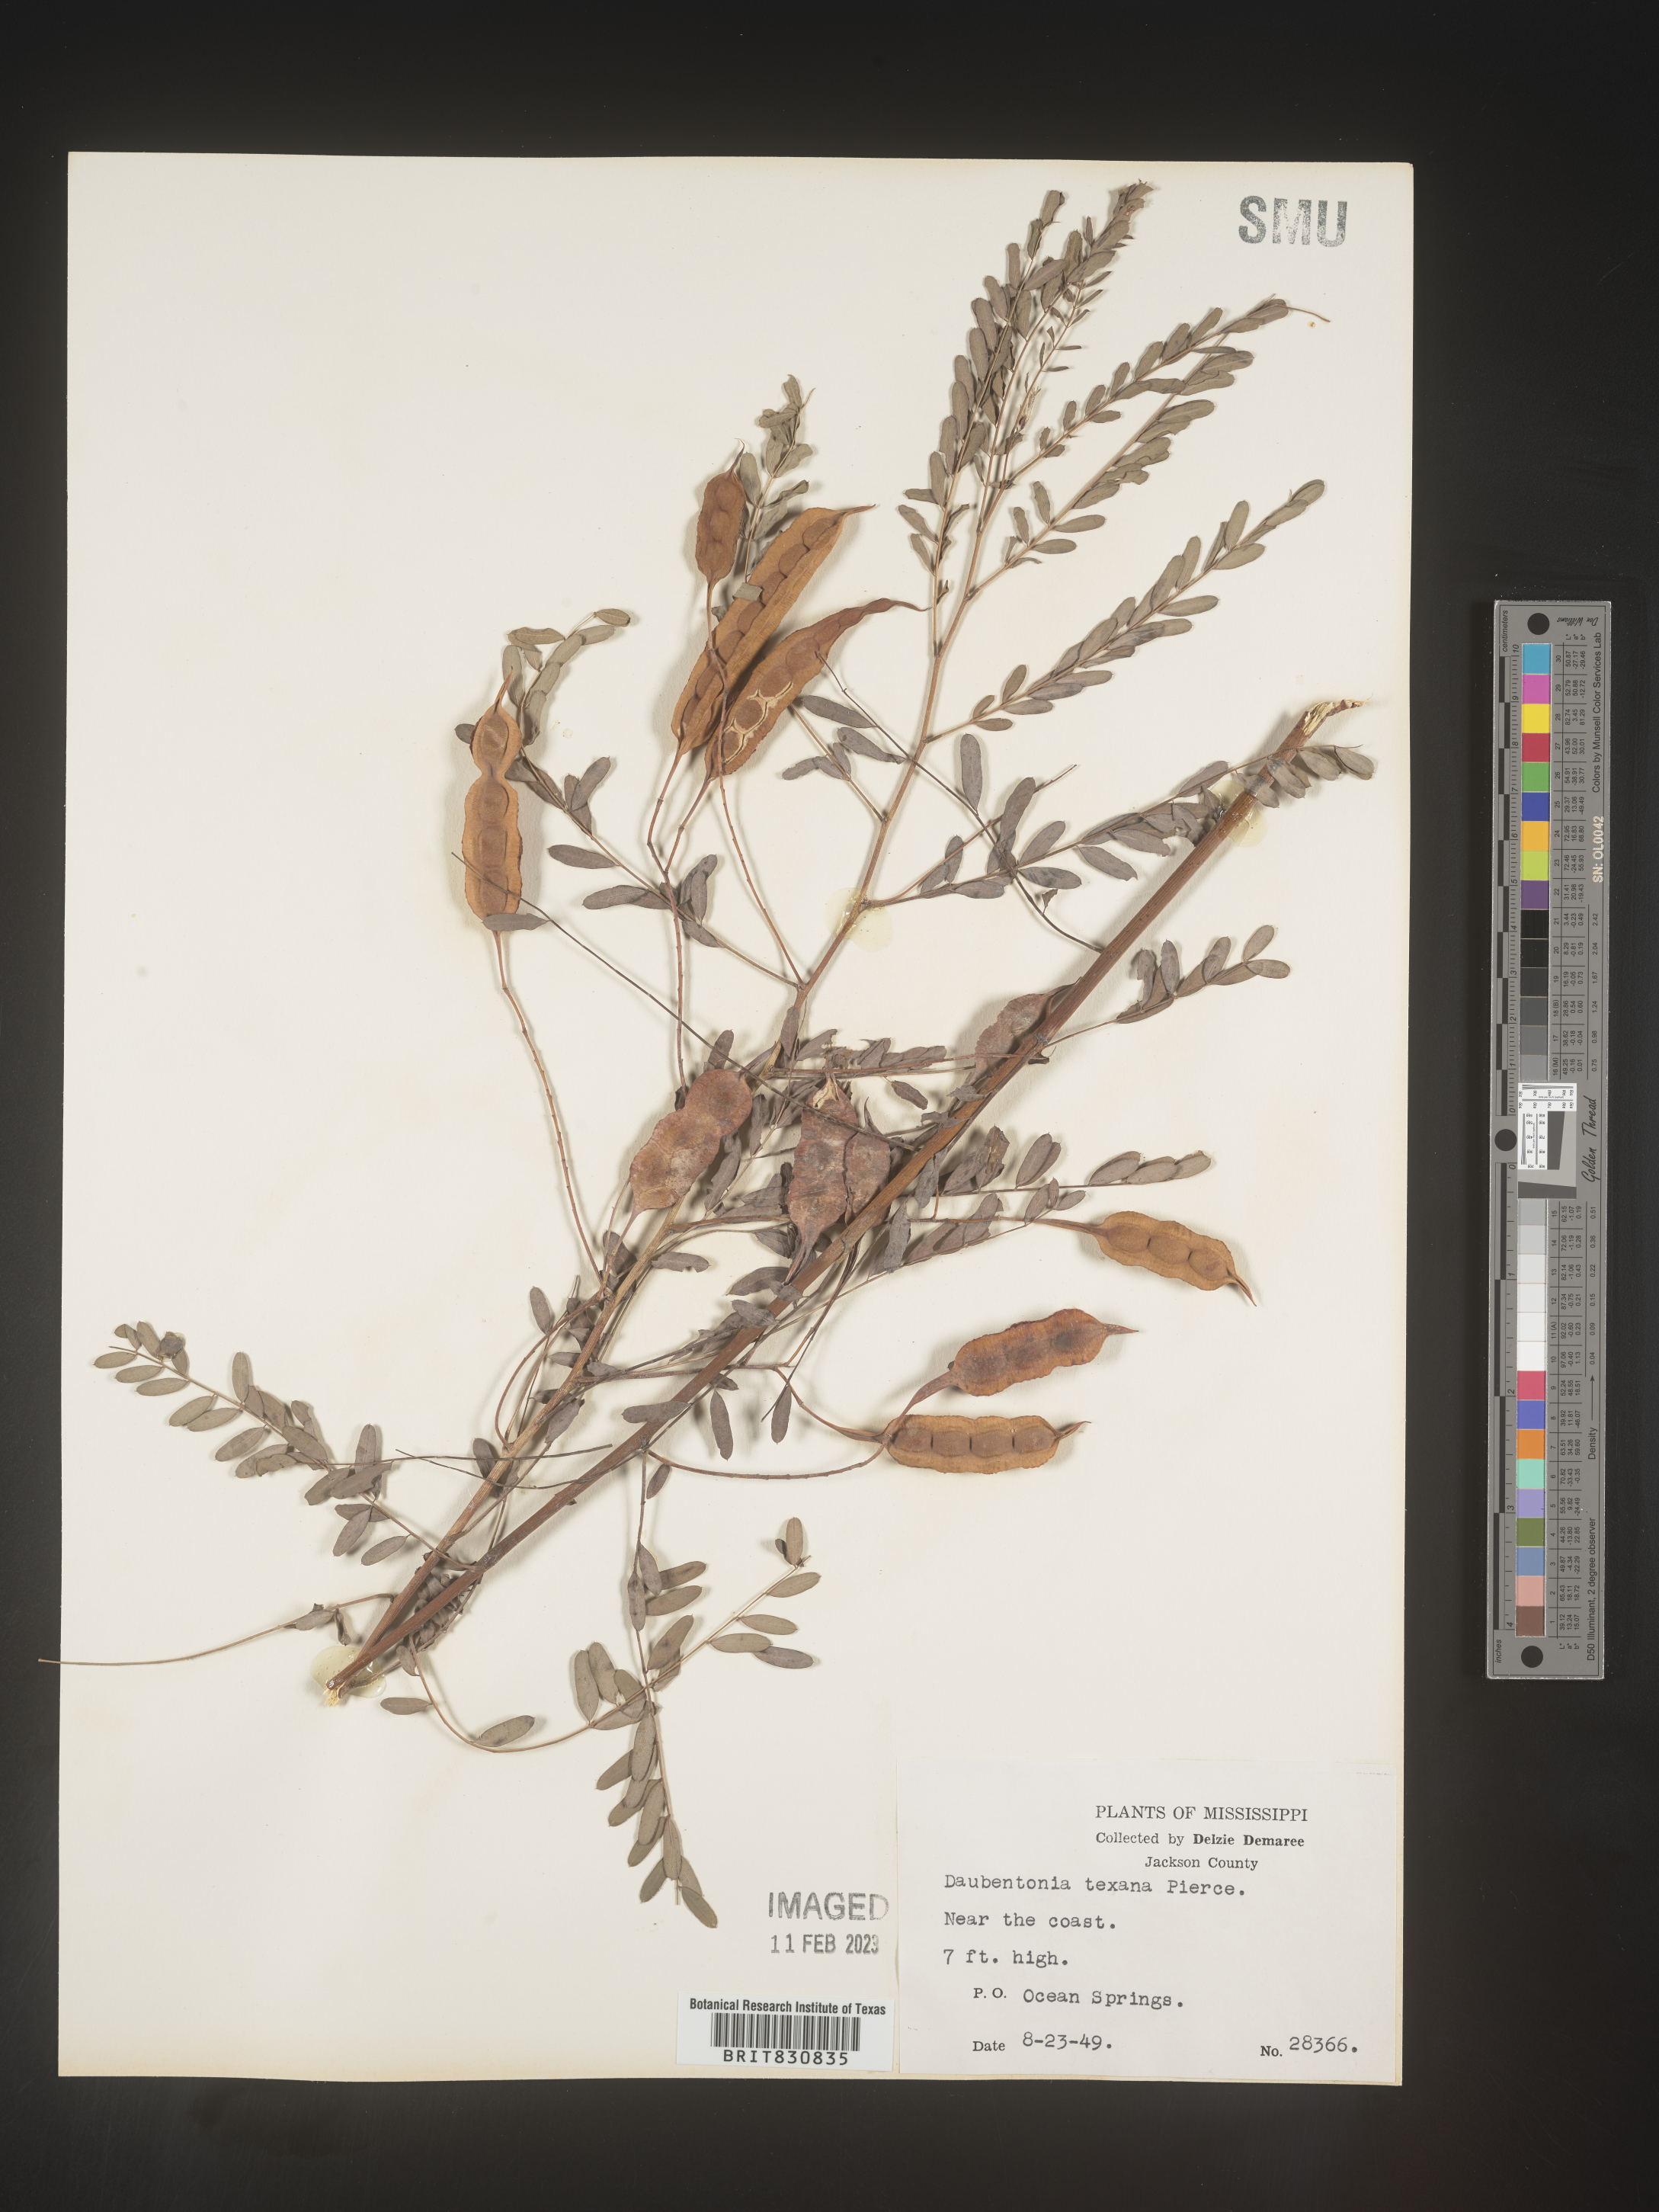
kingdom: Plantae
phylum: Tracheophyta
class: Magnoliopsida
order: Fabales
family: Fabaceae
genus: Sesbania
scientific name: Sesbania drummondii
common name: Poison-bean
